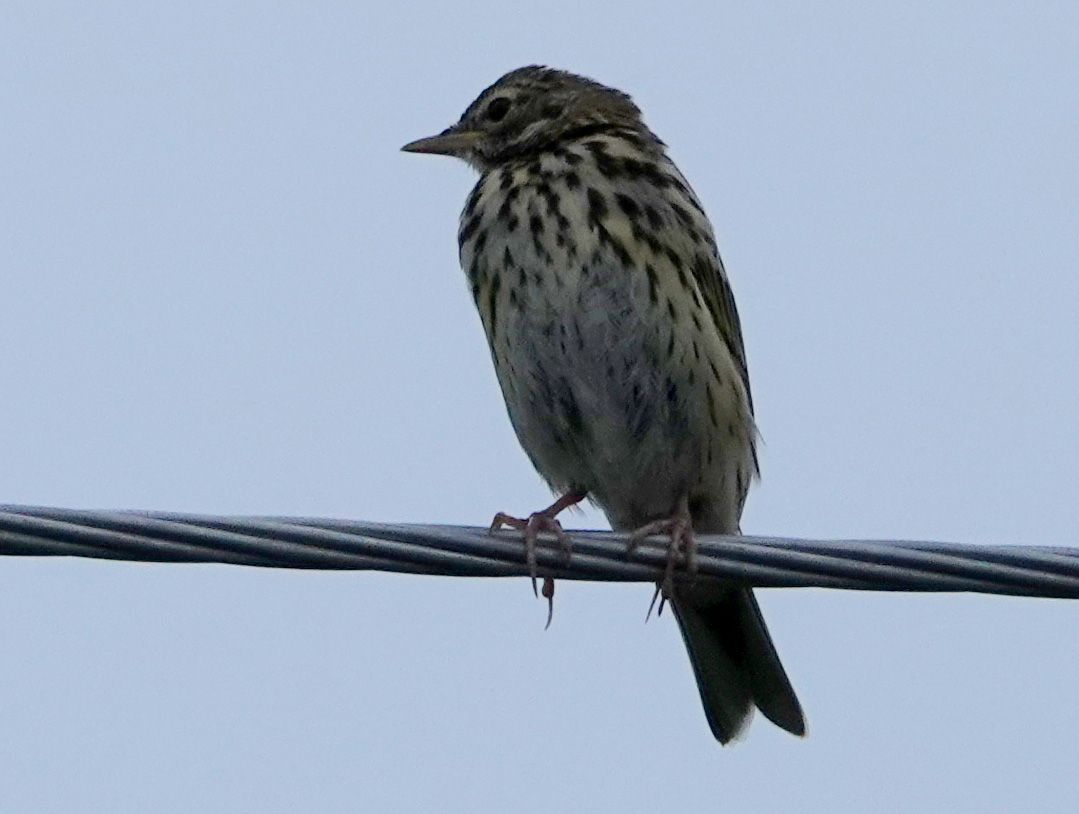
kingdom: Animalia
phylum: Chordata
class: Aves
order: Passeriformes
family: Motacillidae
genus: Anthus
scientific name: Anthus trivialis
